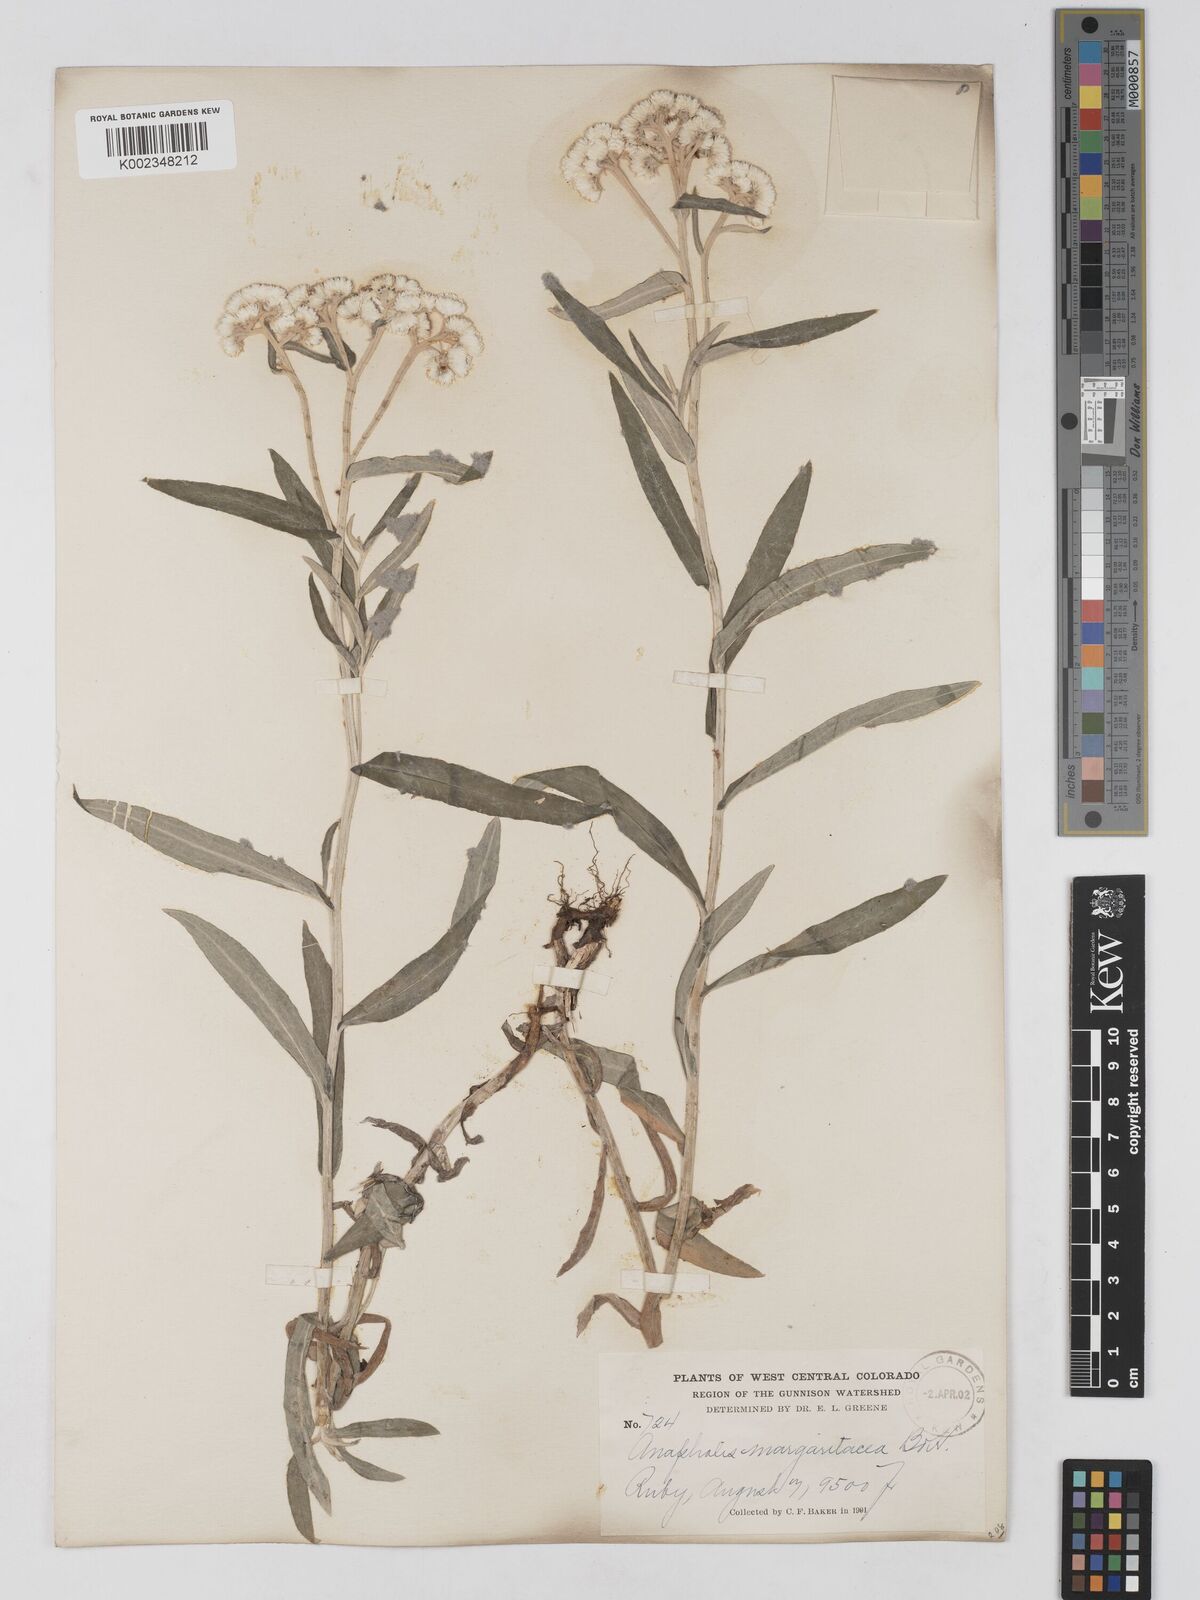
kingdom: Plantae
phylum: Tracheophyta
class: Magnoliopsida
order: Asterales
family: Asteraceae
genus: Anaphalis
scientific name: Anaphalis margaritacea
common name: Pearly everlasting
